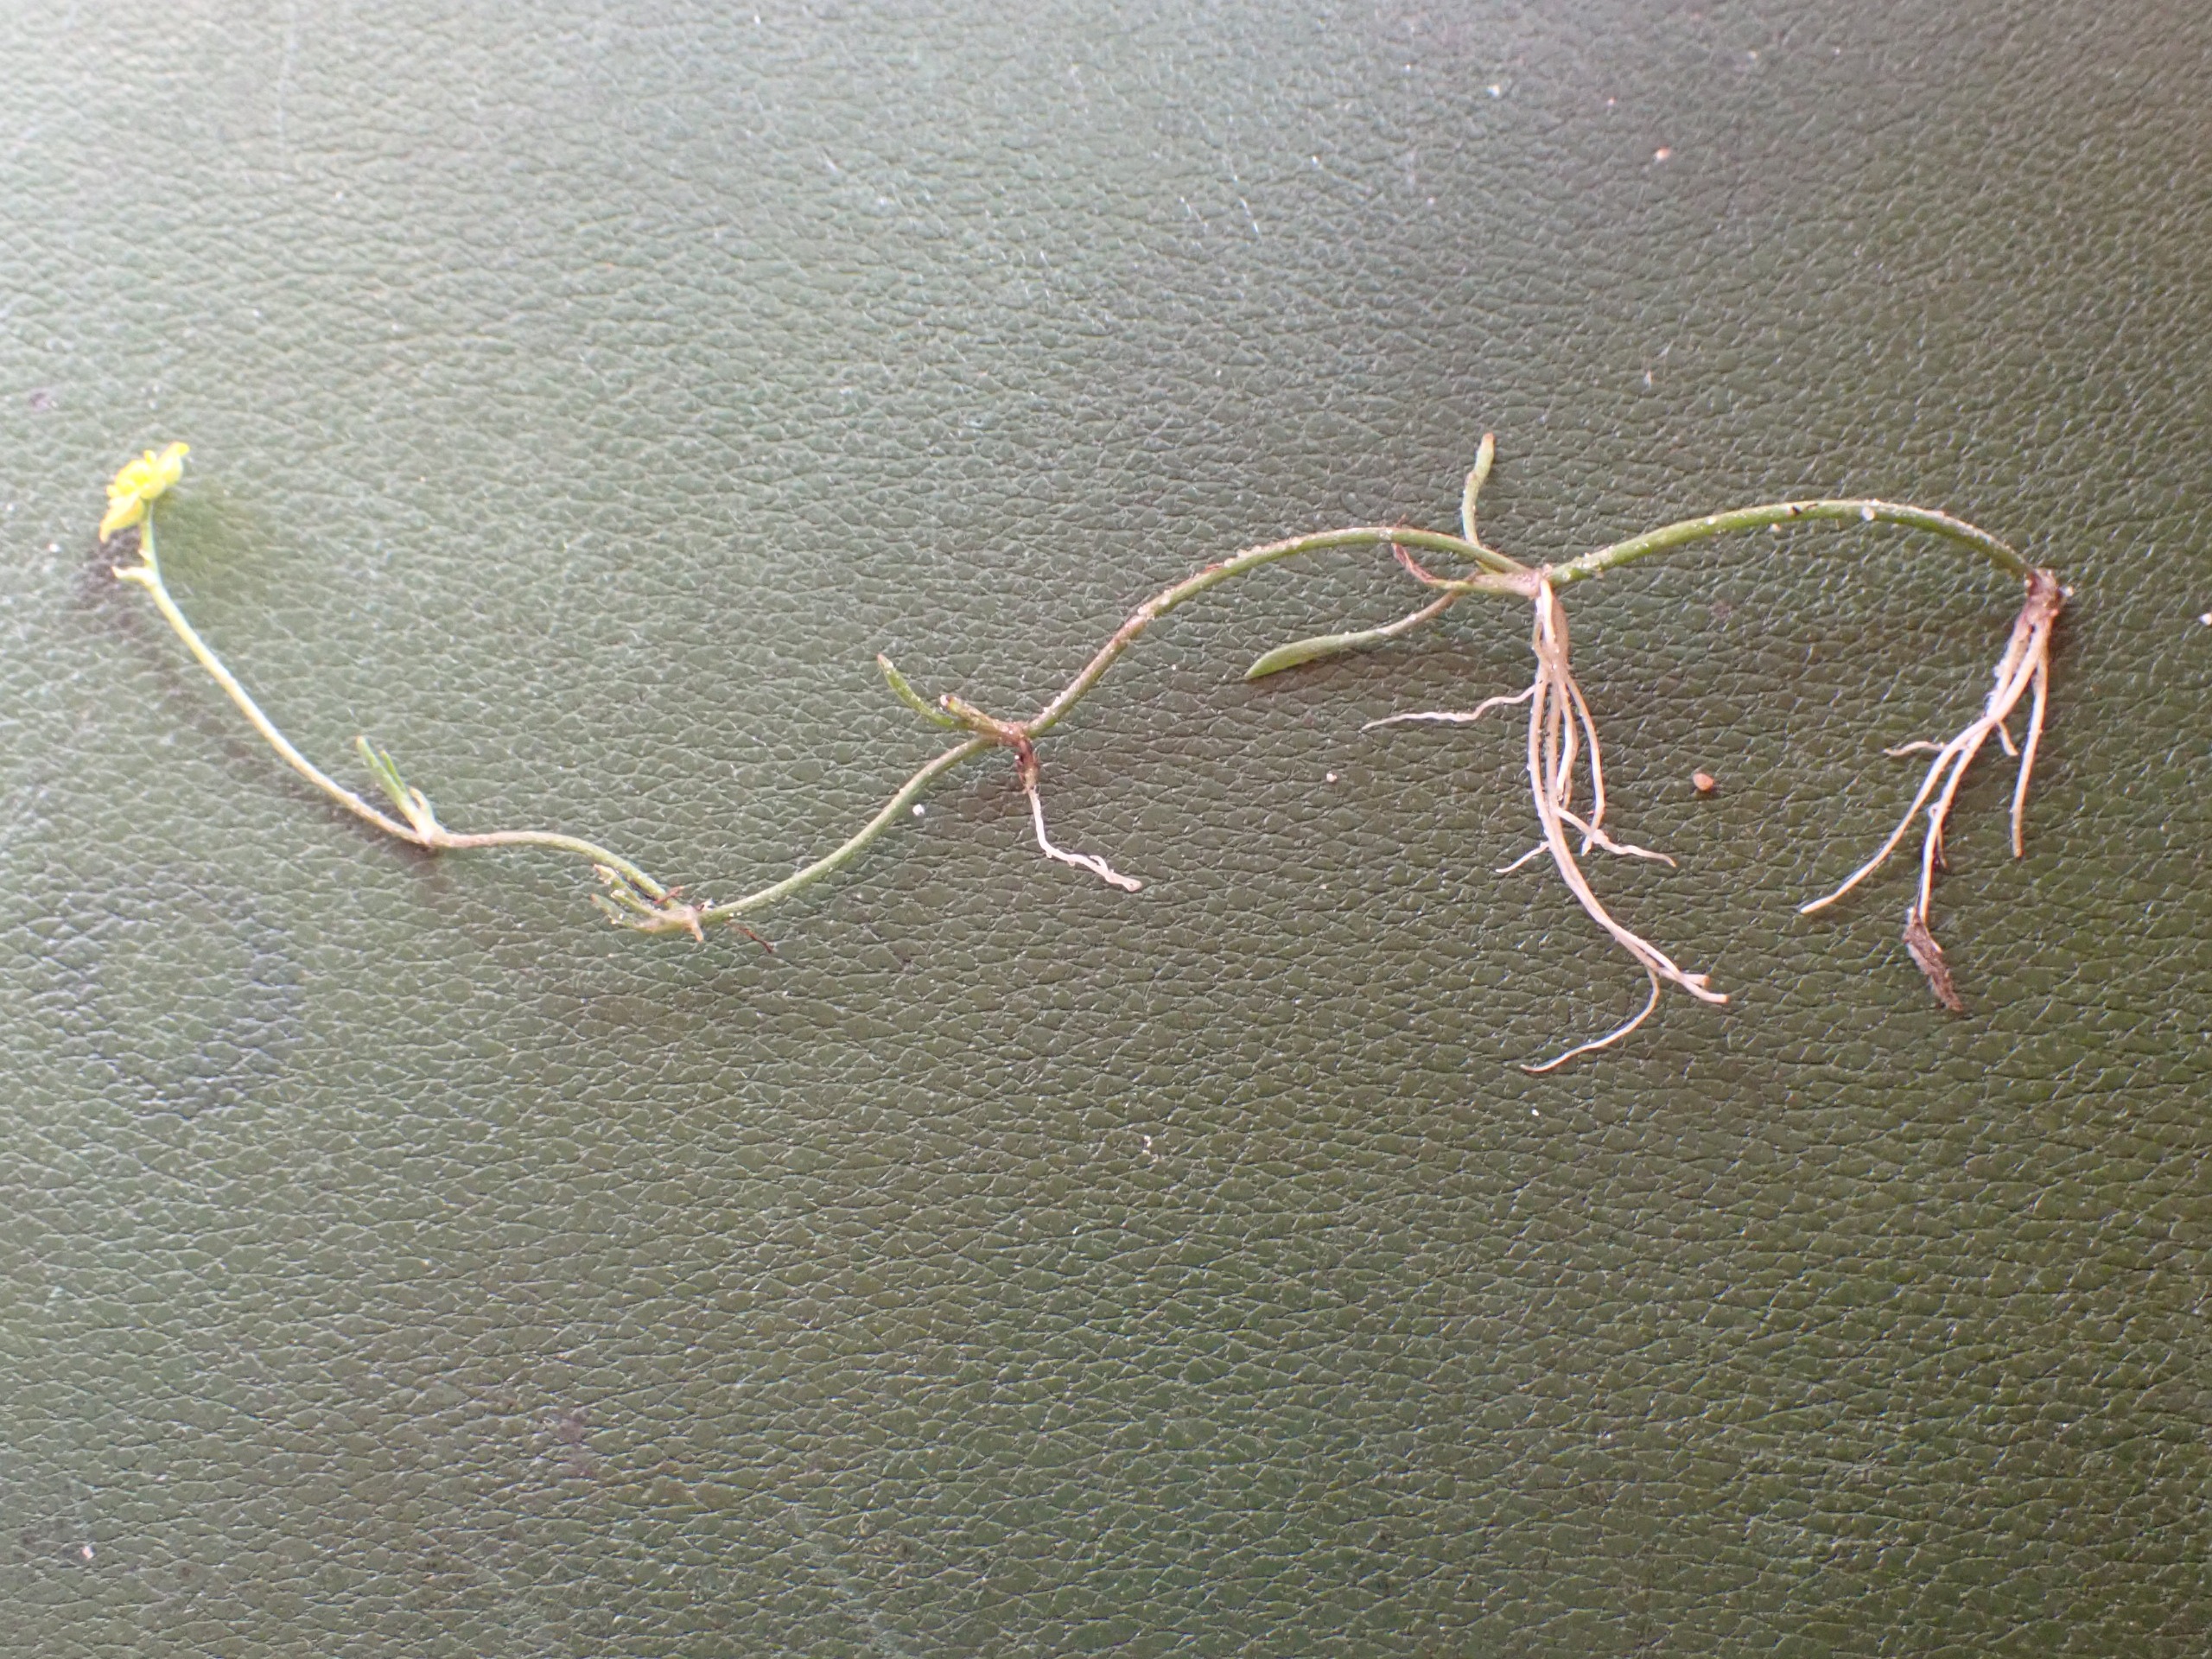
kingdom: Plantae
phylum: Tracheophyta
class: Magnoliopsida
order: Ranunculales
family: Ranunculaceae
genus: Ranunculus
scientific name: Ranunculus reptans
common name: Krybende ranunkel
